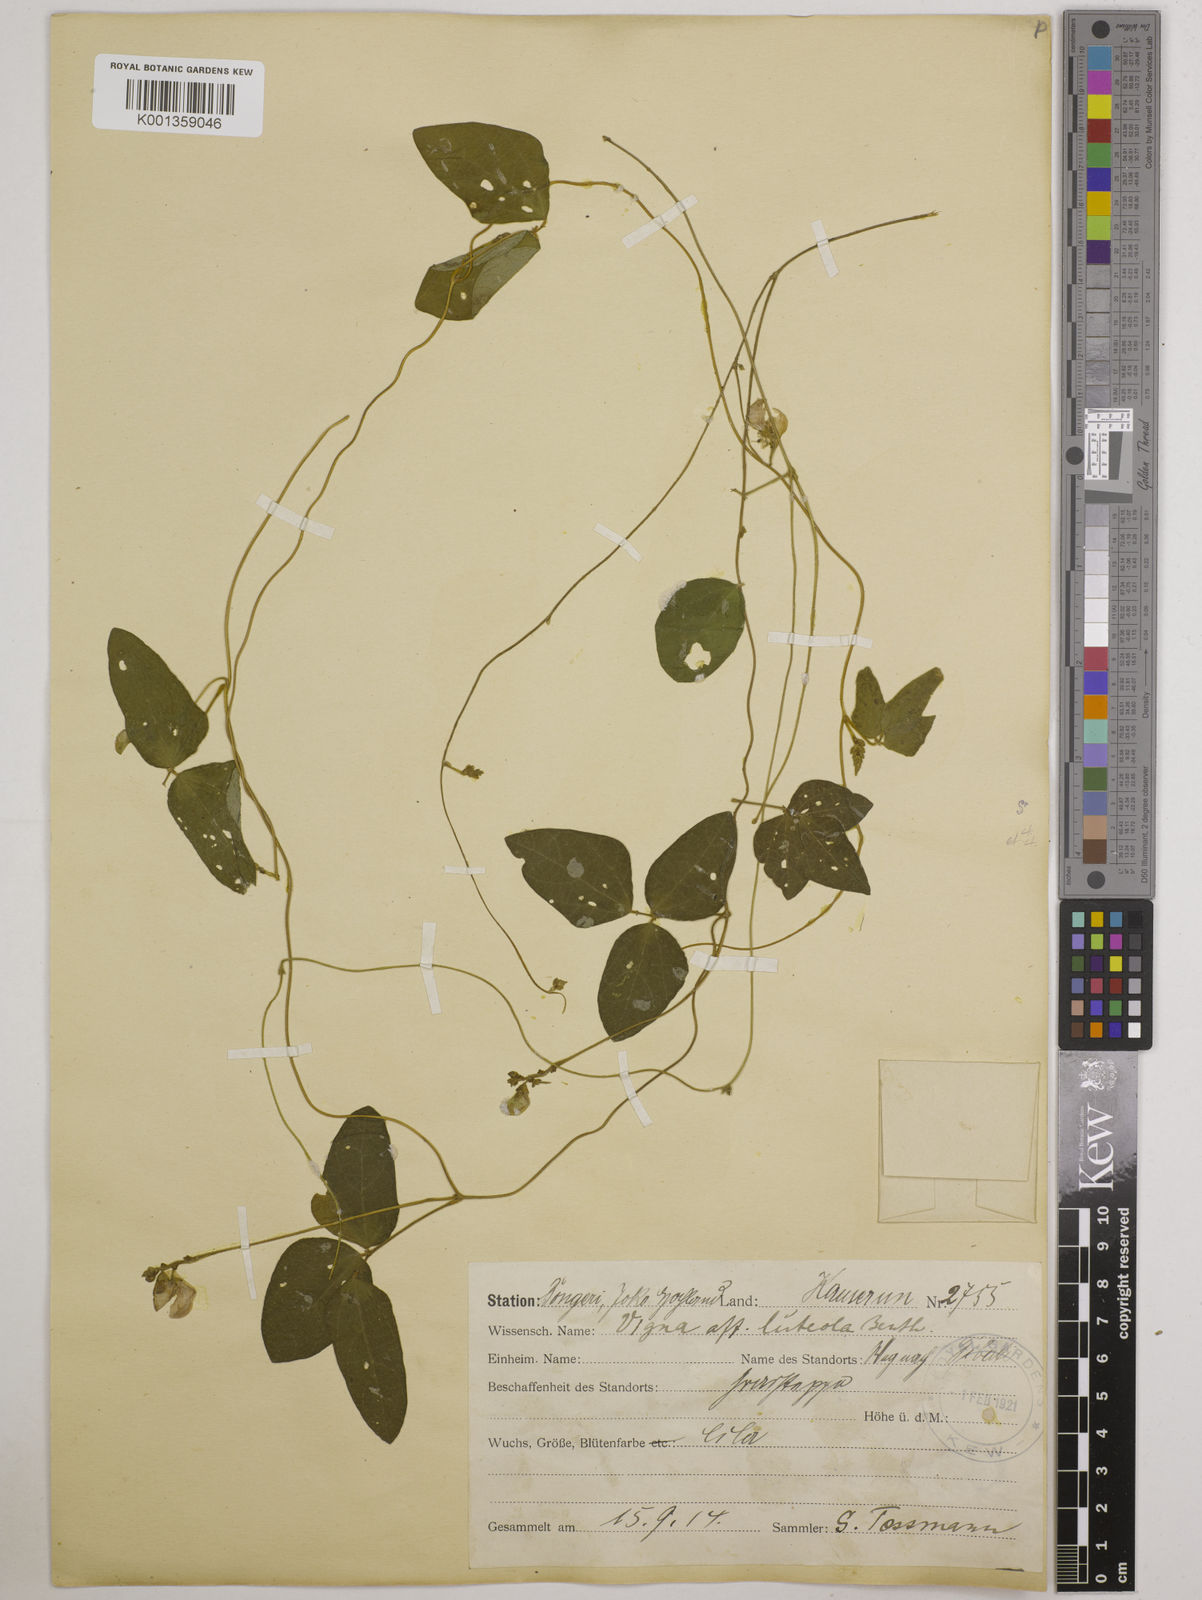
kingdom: Plantae
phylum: Tracheophyta
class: Magnoliopsida
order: Fabales
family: Fabaceae
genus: Vigna
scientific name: Vigna gracilis
